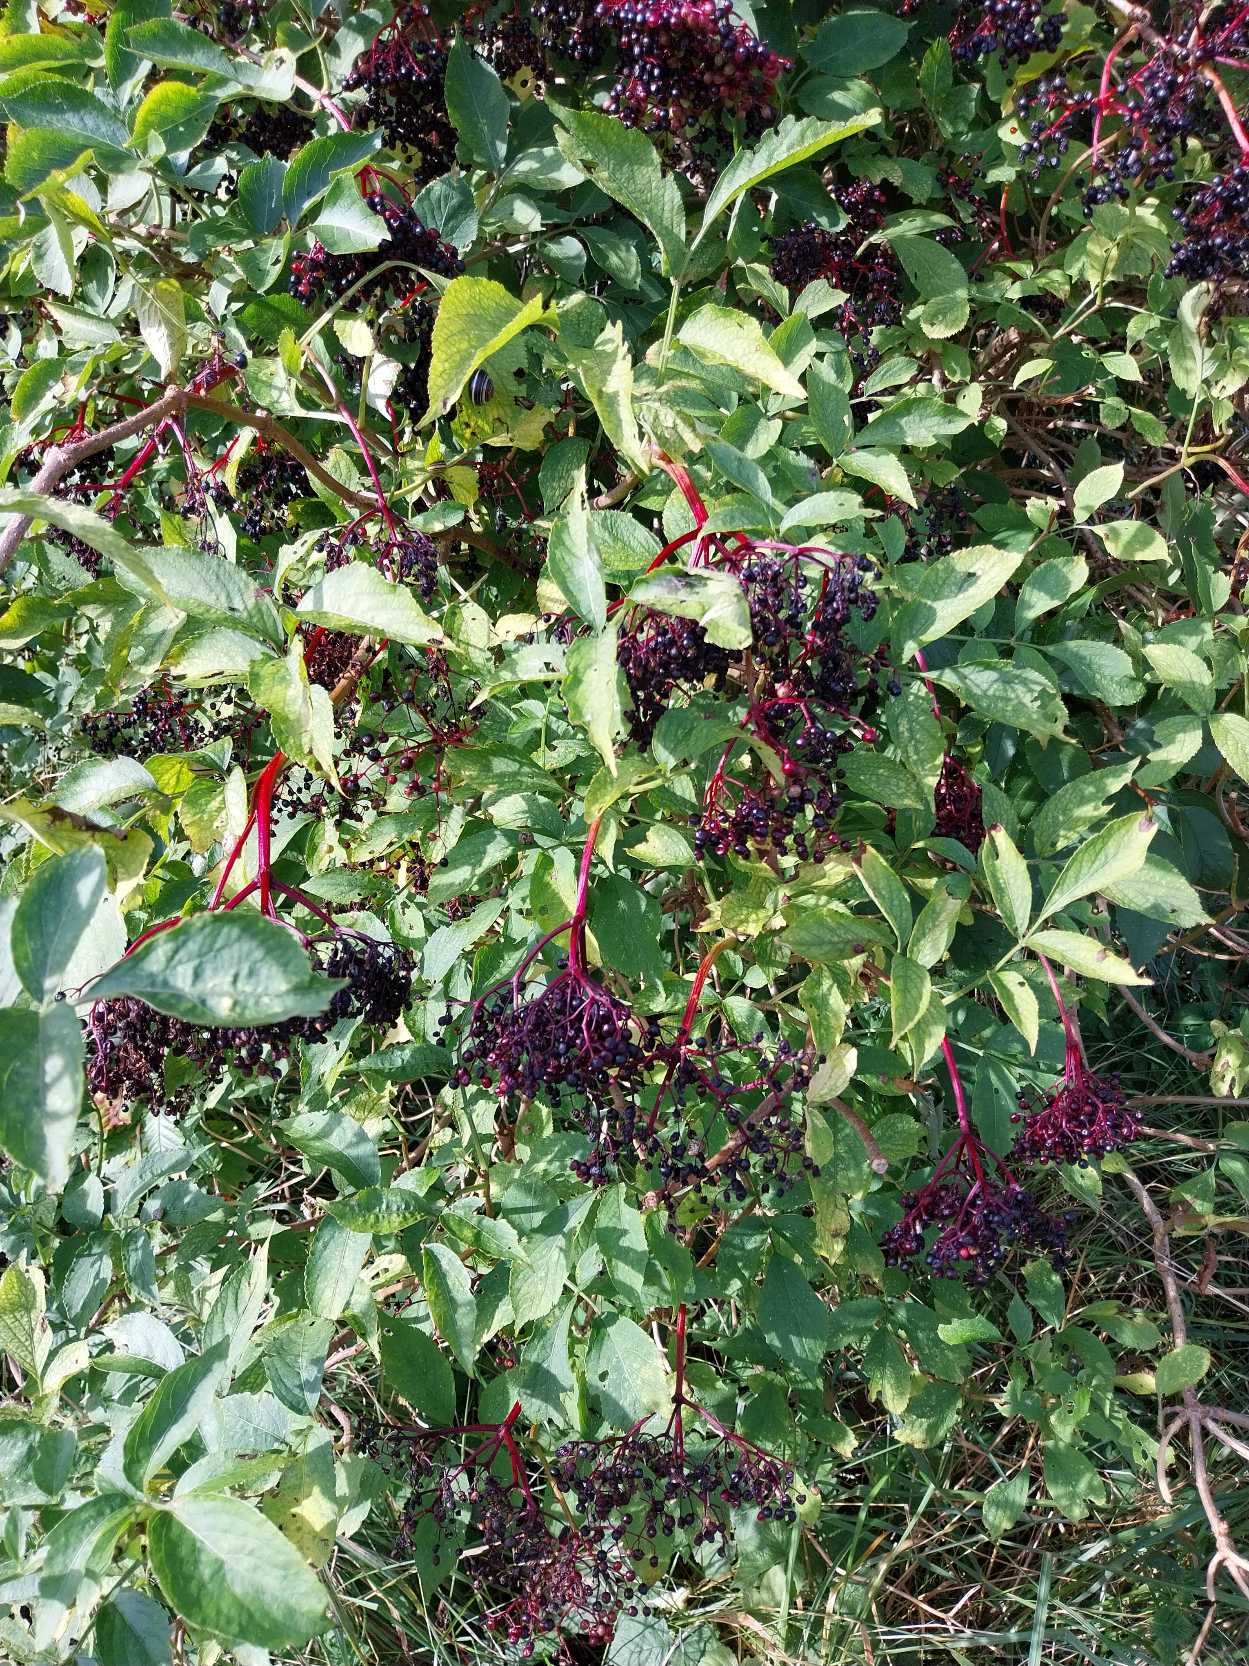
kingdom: Plantae
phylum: Tracheophyta
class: Magnoliopsida
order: Dipsacales
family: Viburnaceae
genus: Sambucus
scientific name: Sambucus nigra
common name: Almindelig hyld
